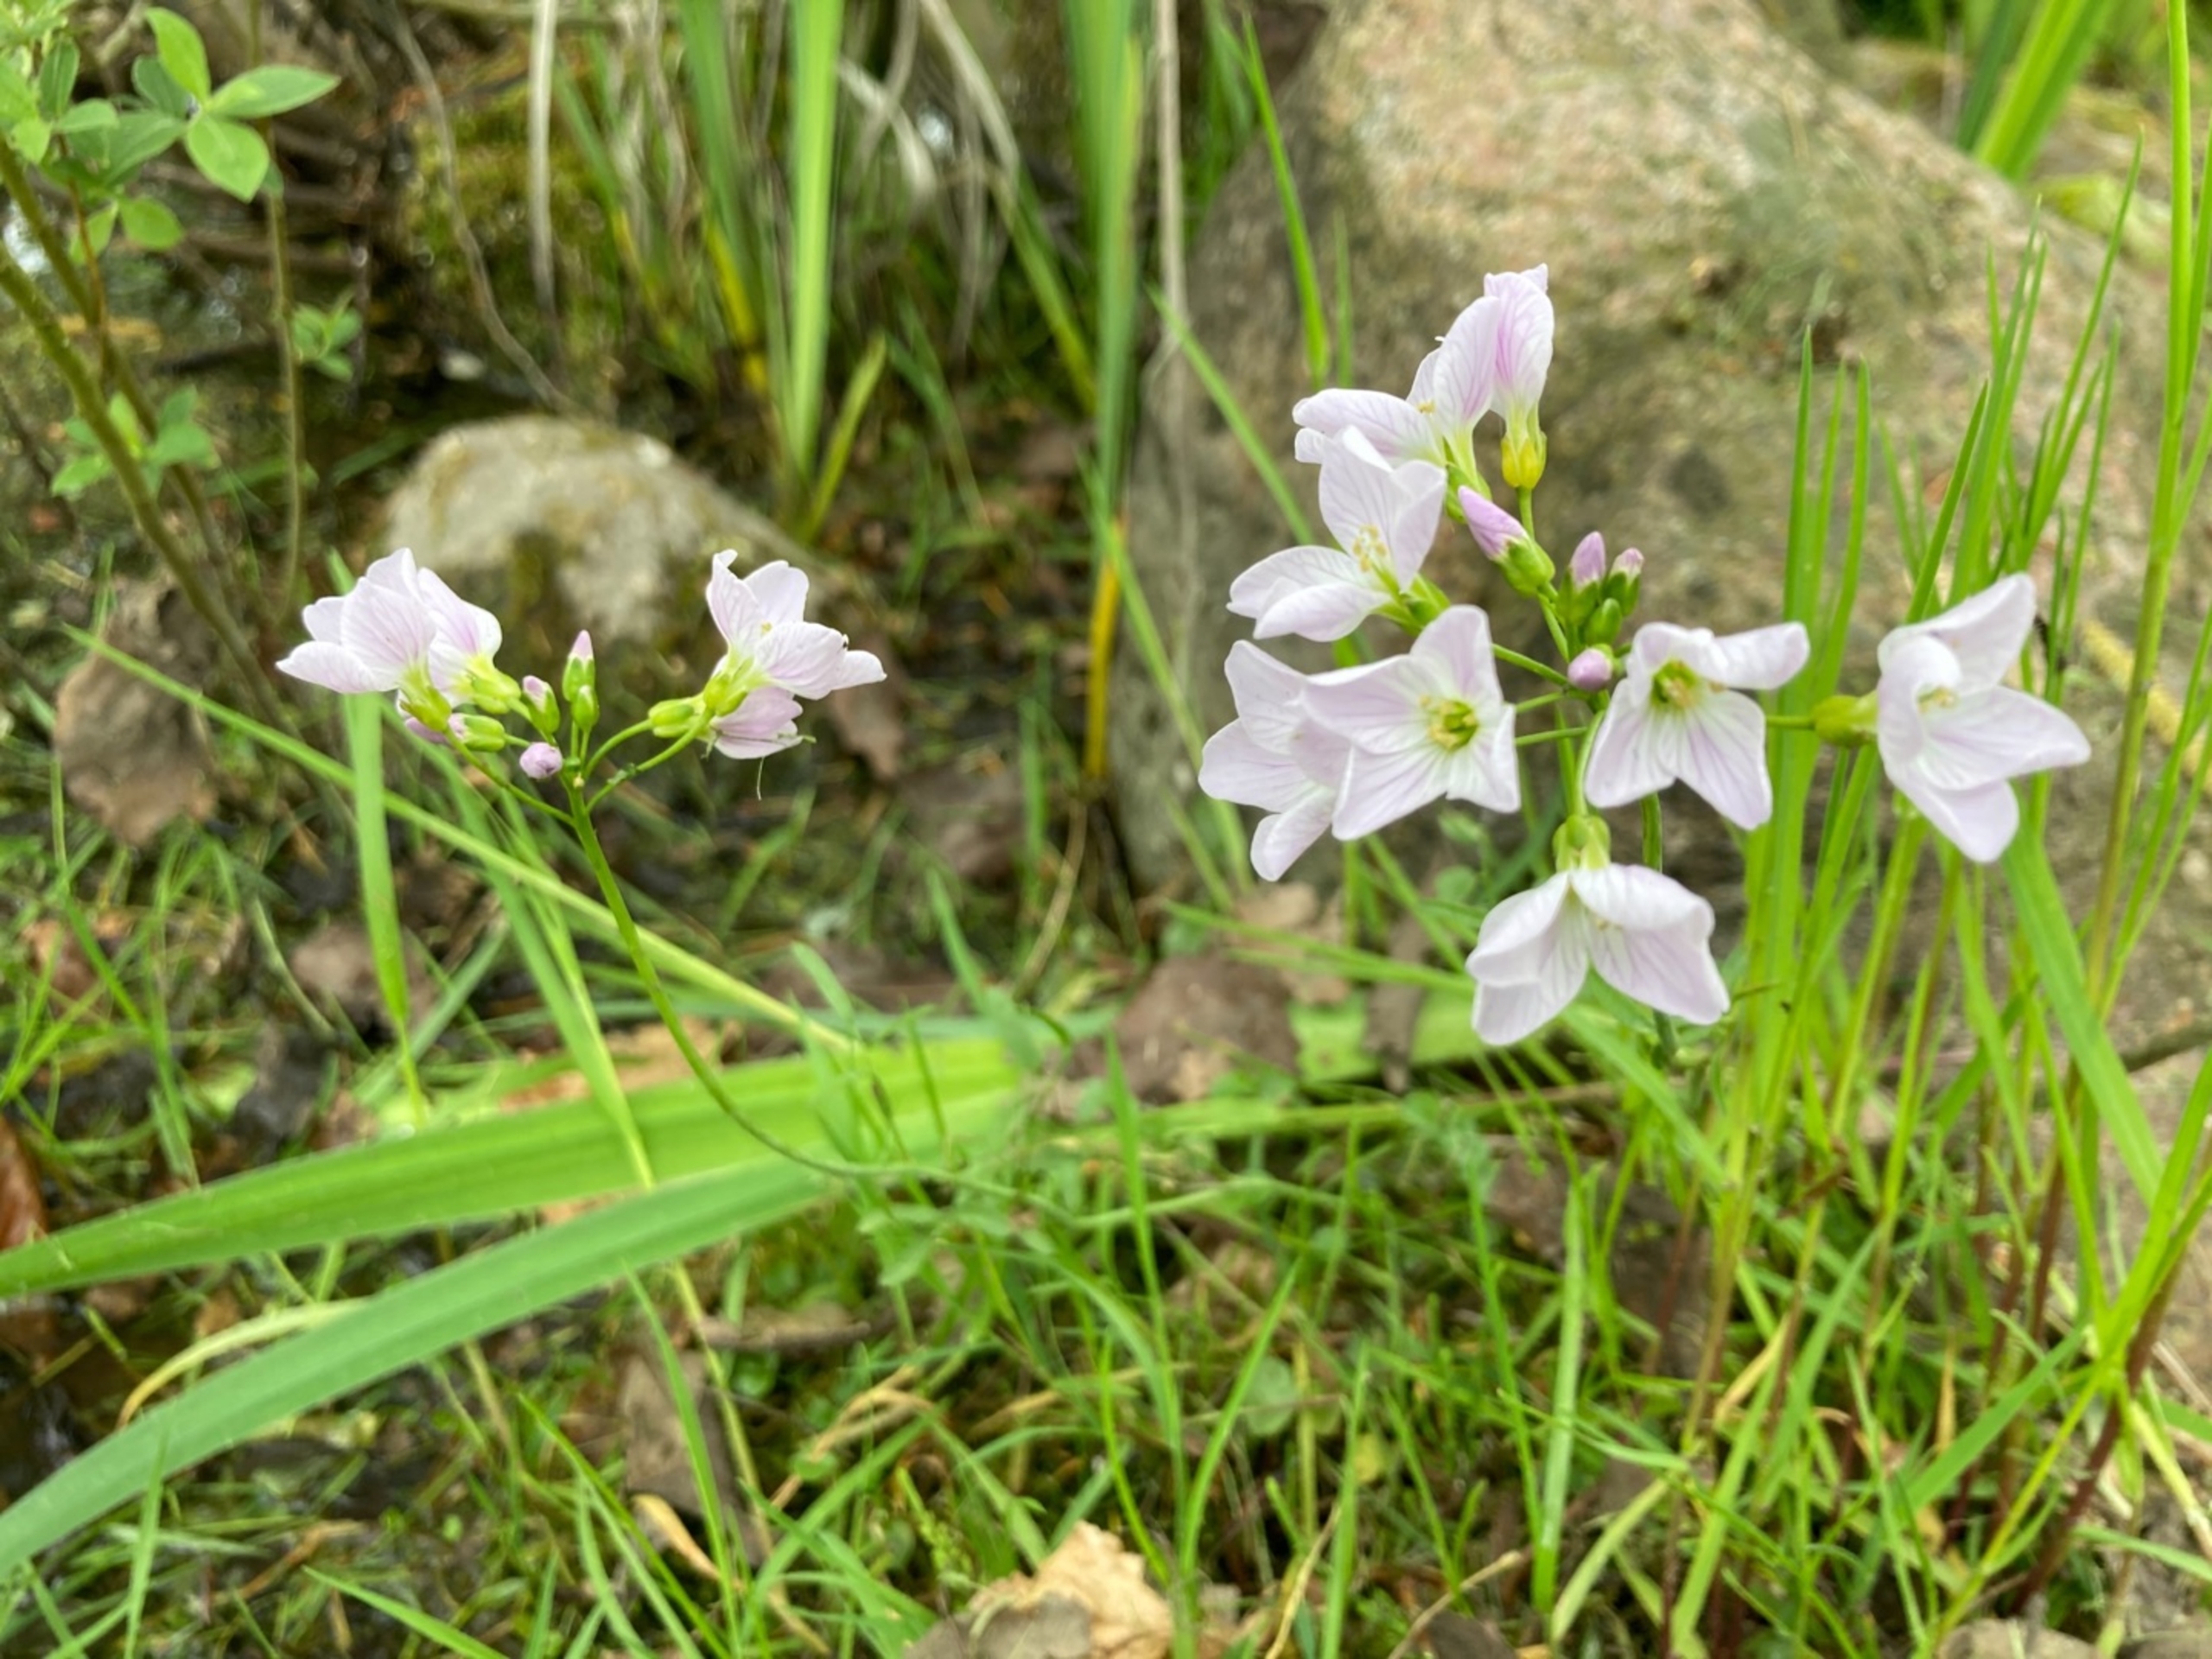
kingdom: Plantae
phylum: Tracheophyta
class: Magnoliopsida
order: Brassicales
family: Brassicaceae
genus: Cardamine
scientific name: Cardamine pratensis
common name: Engkarse
